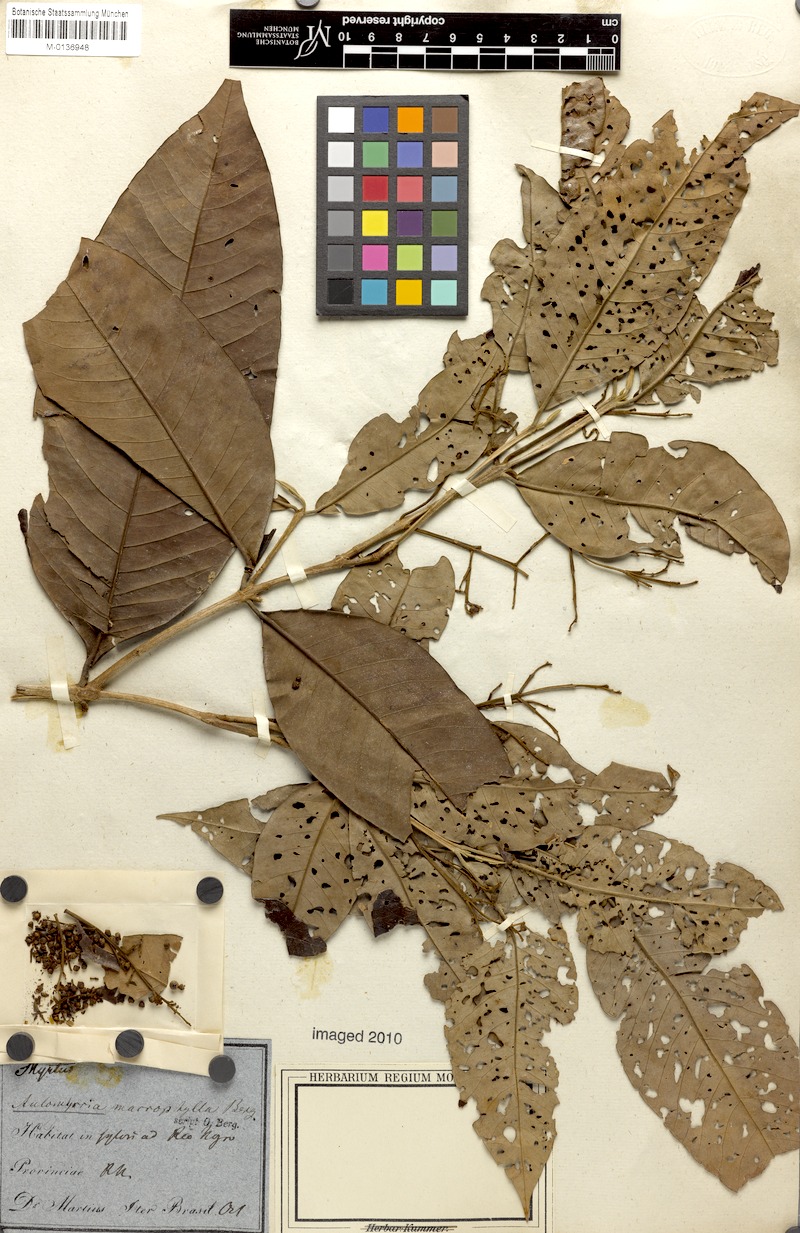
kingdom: Plantae
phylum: Tracheophyta
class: Magnoliopsida
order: Myrtales
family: Myrtaceae
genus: Myrcia
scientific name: Myrcia splendens
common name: Surinam cherry
